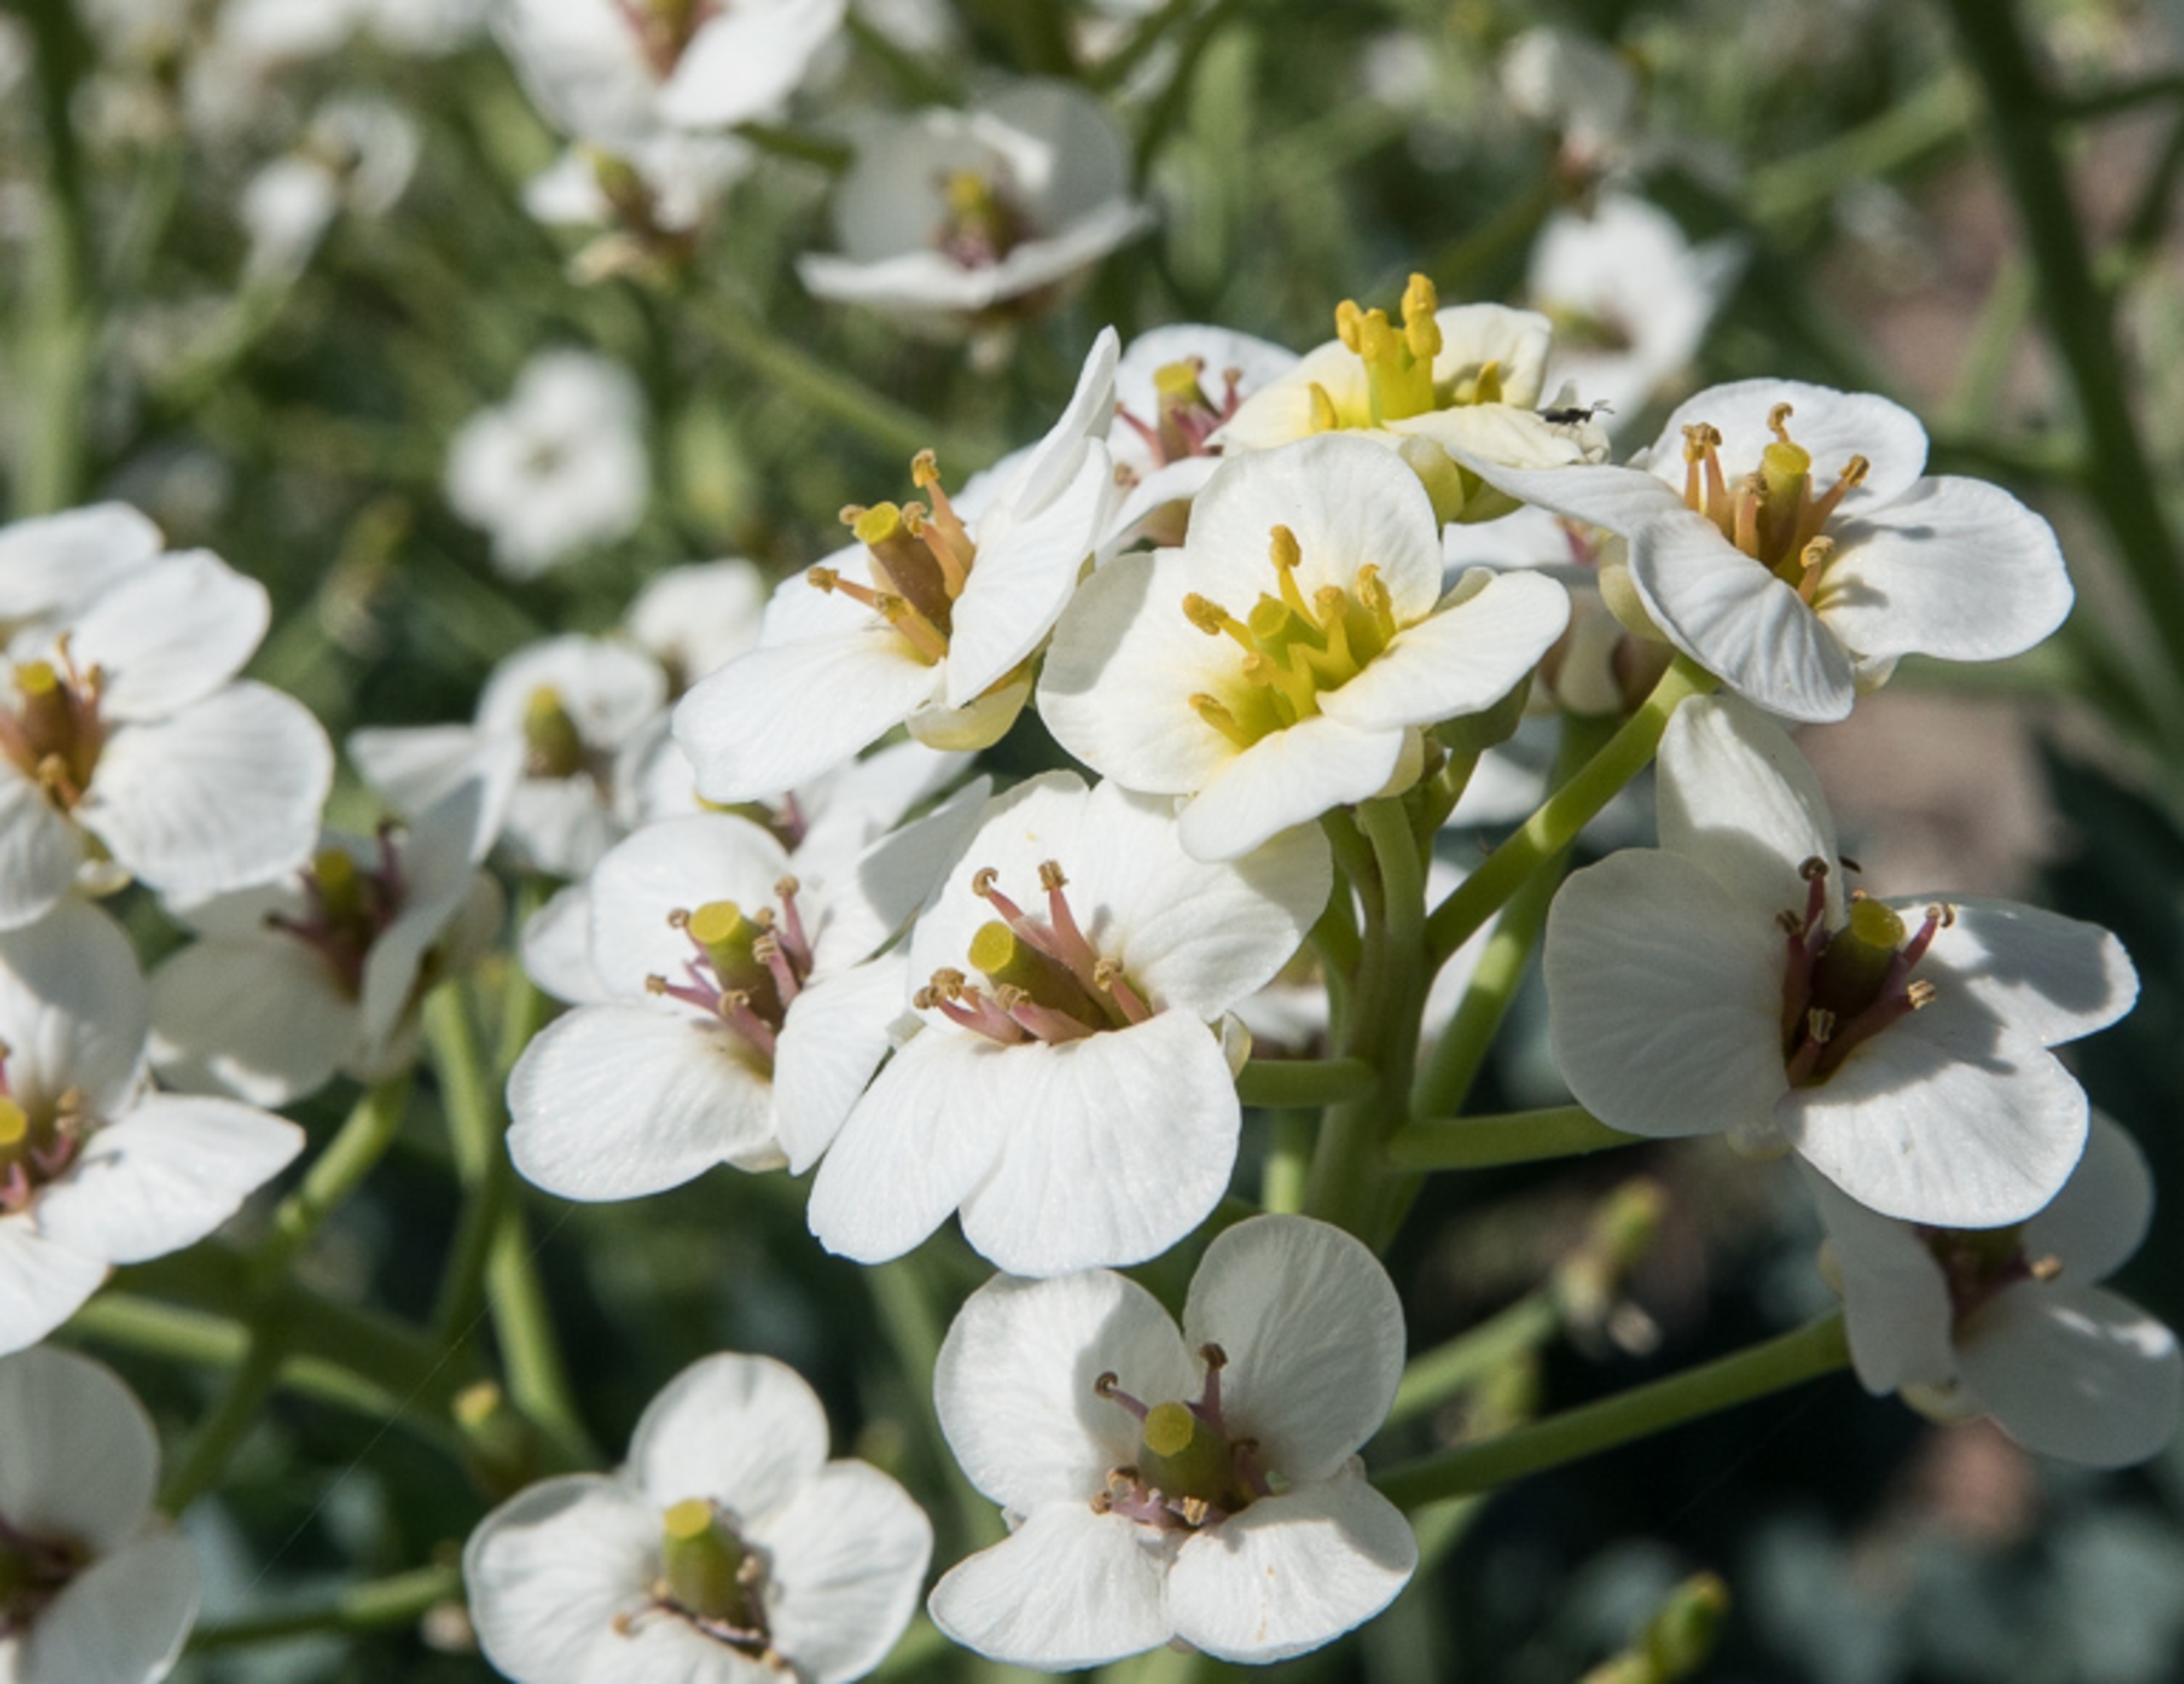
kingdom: Plantae
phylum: Tracheophyta
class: Magnoliopsida
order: Brassicales
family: Brassicaceae
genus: Crambe
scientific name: Crambe maritima
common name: Strandkål
